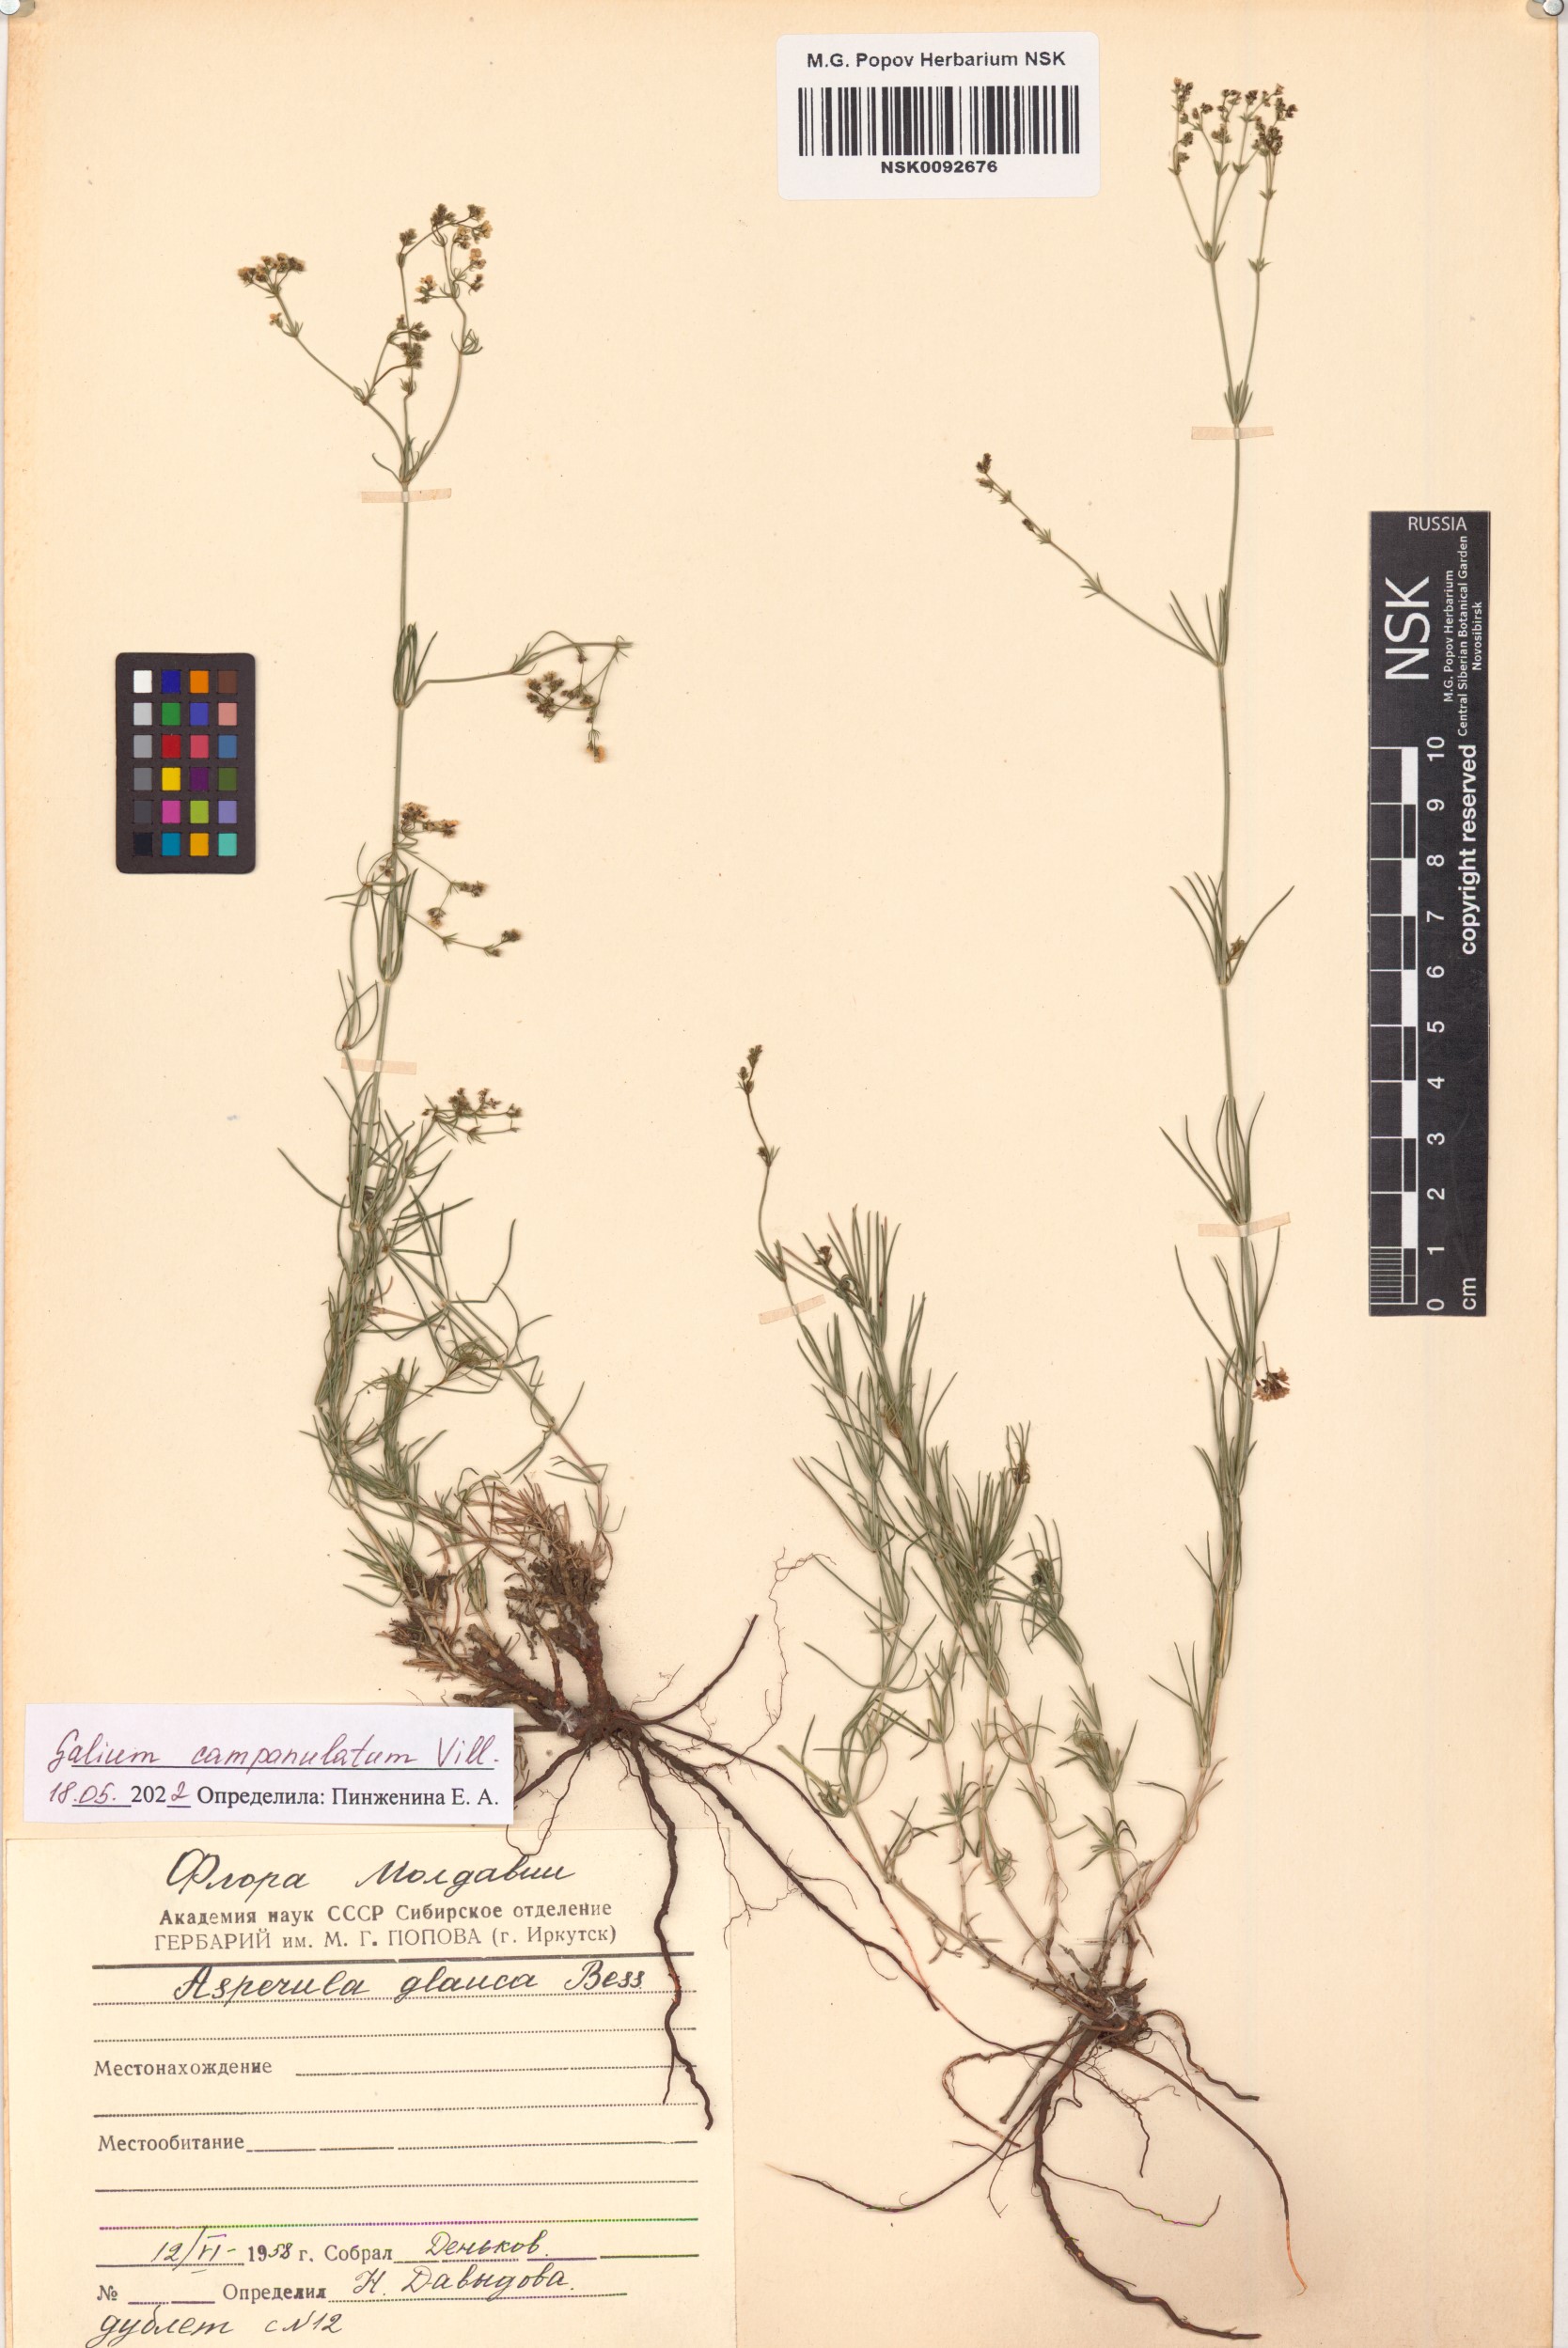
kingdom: Plantae
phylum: Tracheophyta
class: Magnoliopsida
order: Gentianales
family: Rubiaceae
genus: Galium
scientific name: Galium glaucum
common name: Waxy bedstraw
